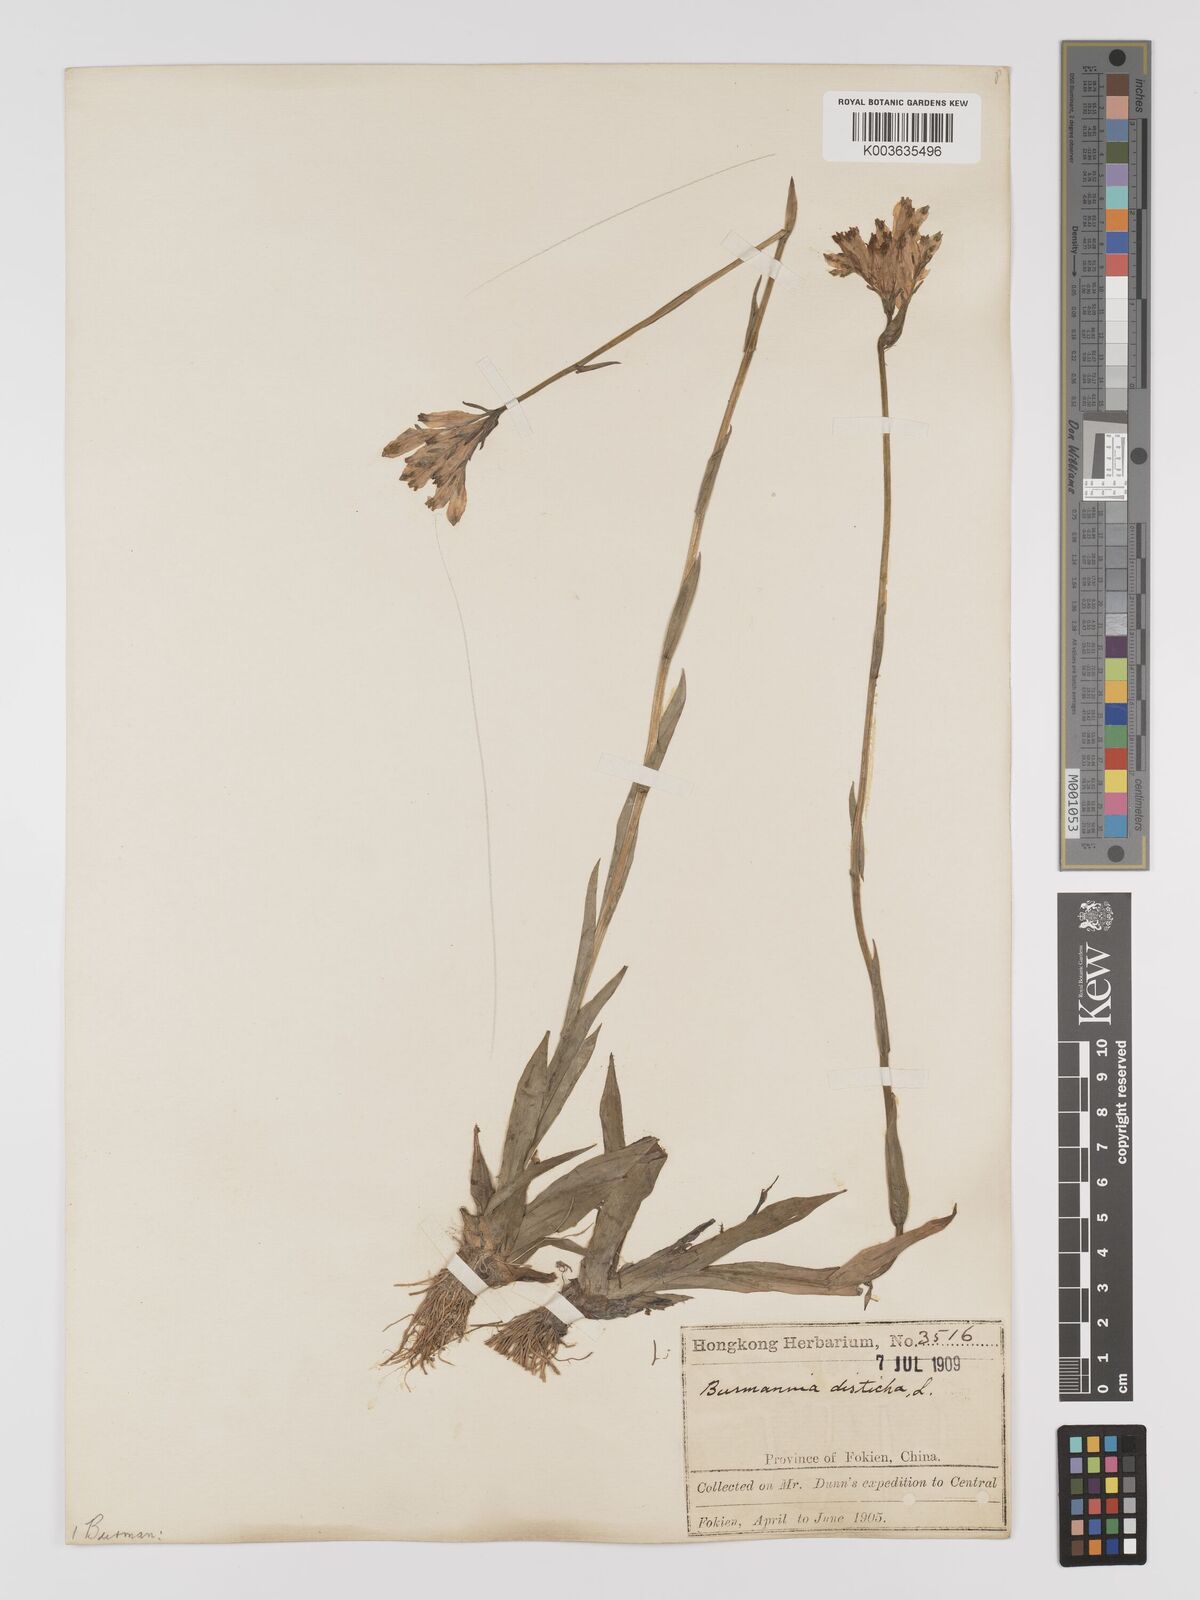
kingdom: Plantae
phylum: Tracheophyta
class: Liliopsida
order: Dioscoreales
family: Burmanniaceae
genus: Burmannia
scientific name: Burmannia disticha
